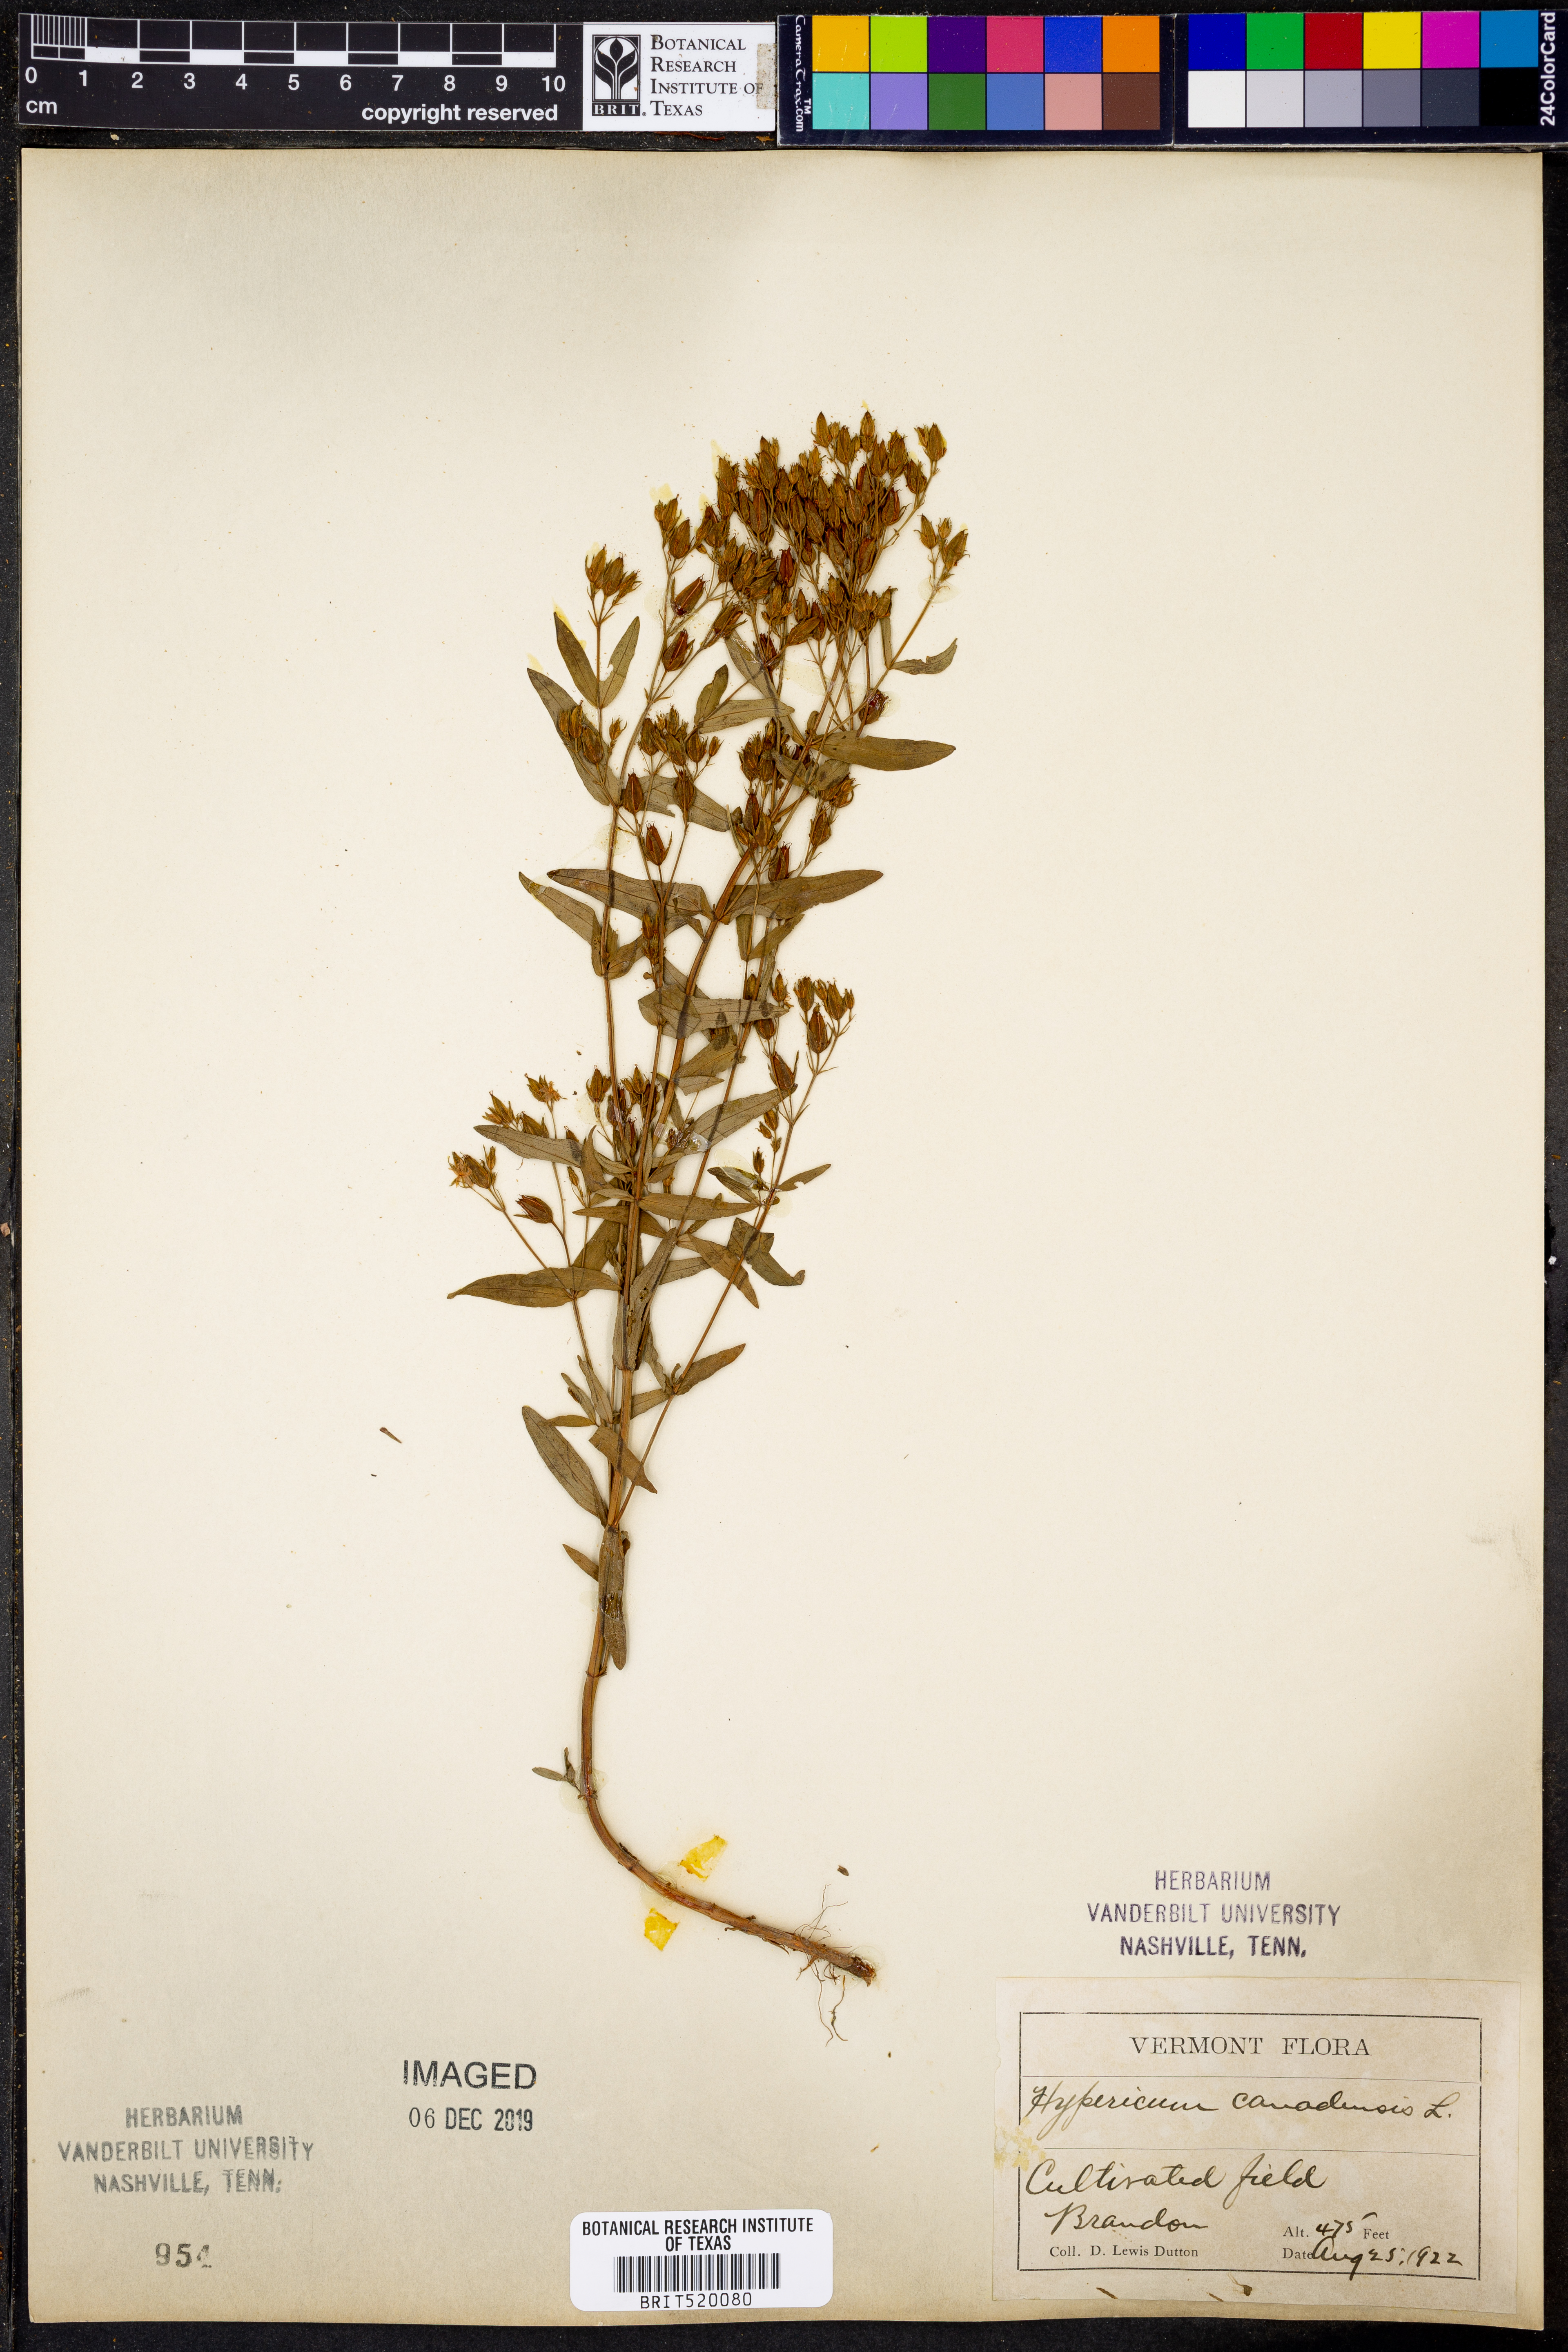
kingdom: Plantae
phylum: Tracheophyta
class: Magnoliopsida
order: Malpighiales
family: Hypericaceae
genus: Hypericum
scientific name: Hypericum canadense
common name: Irish st. john's-wort
